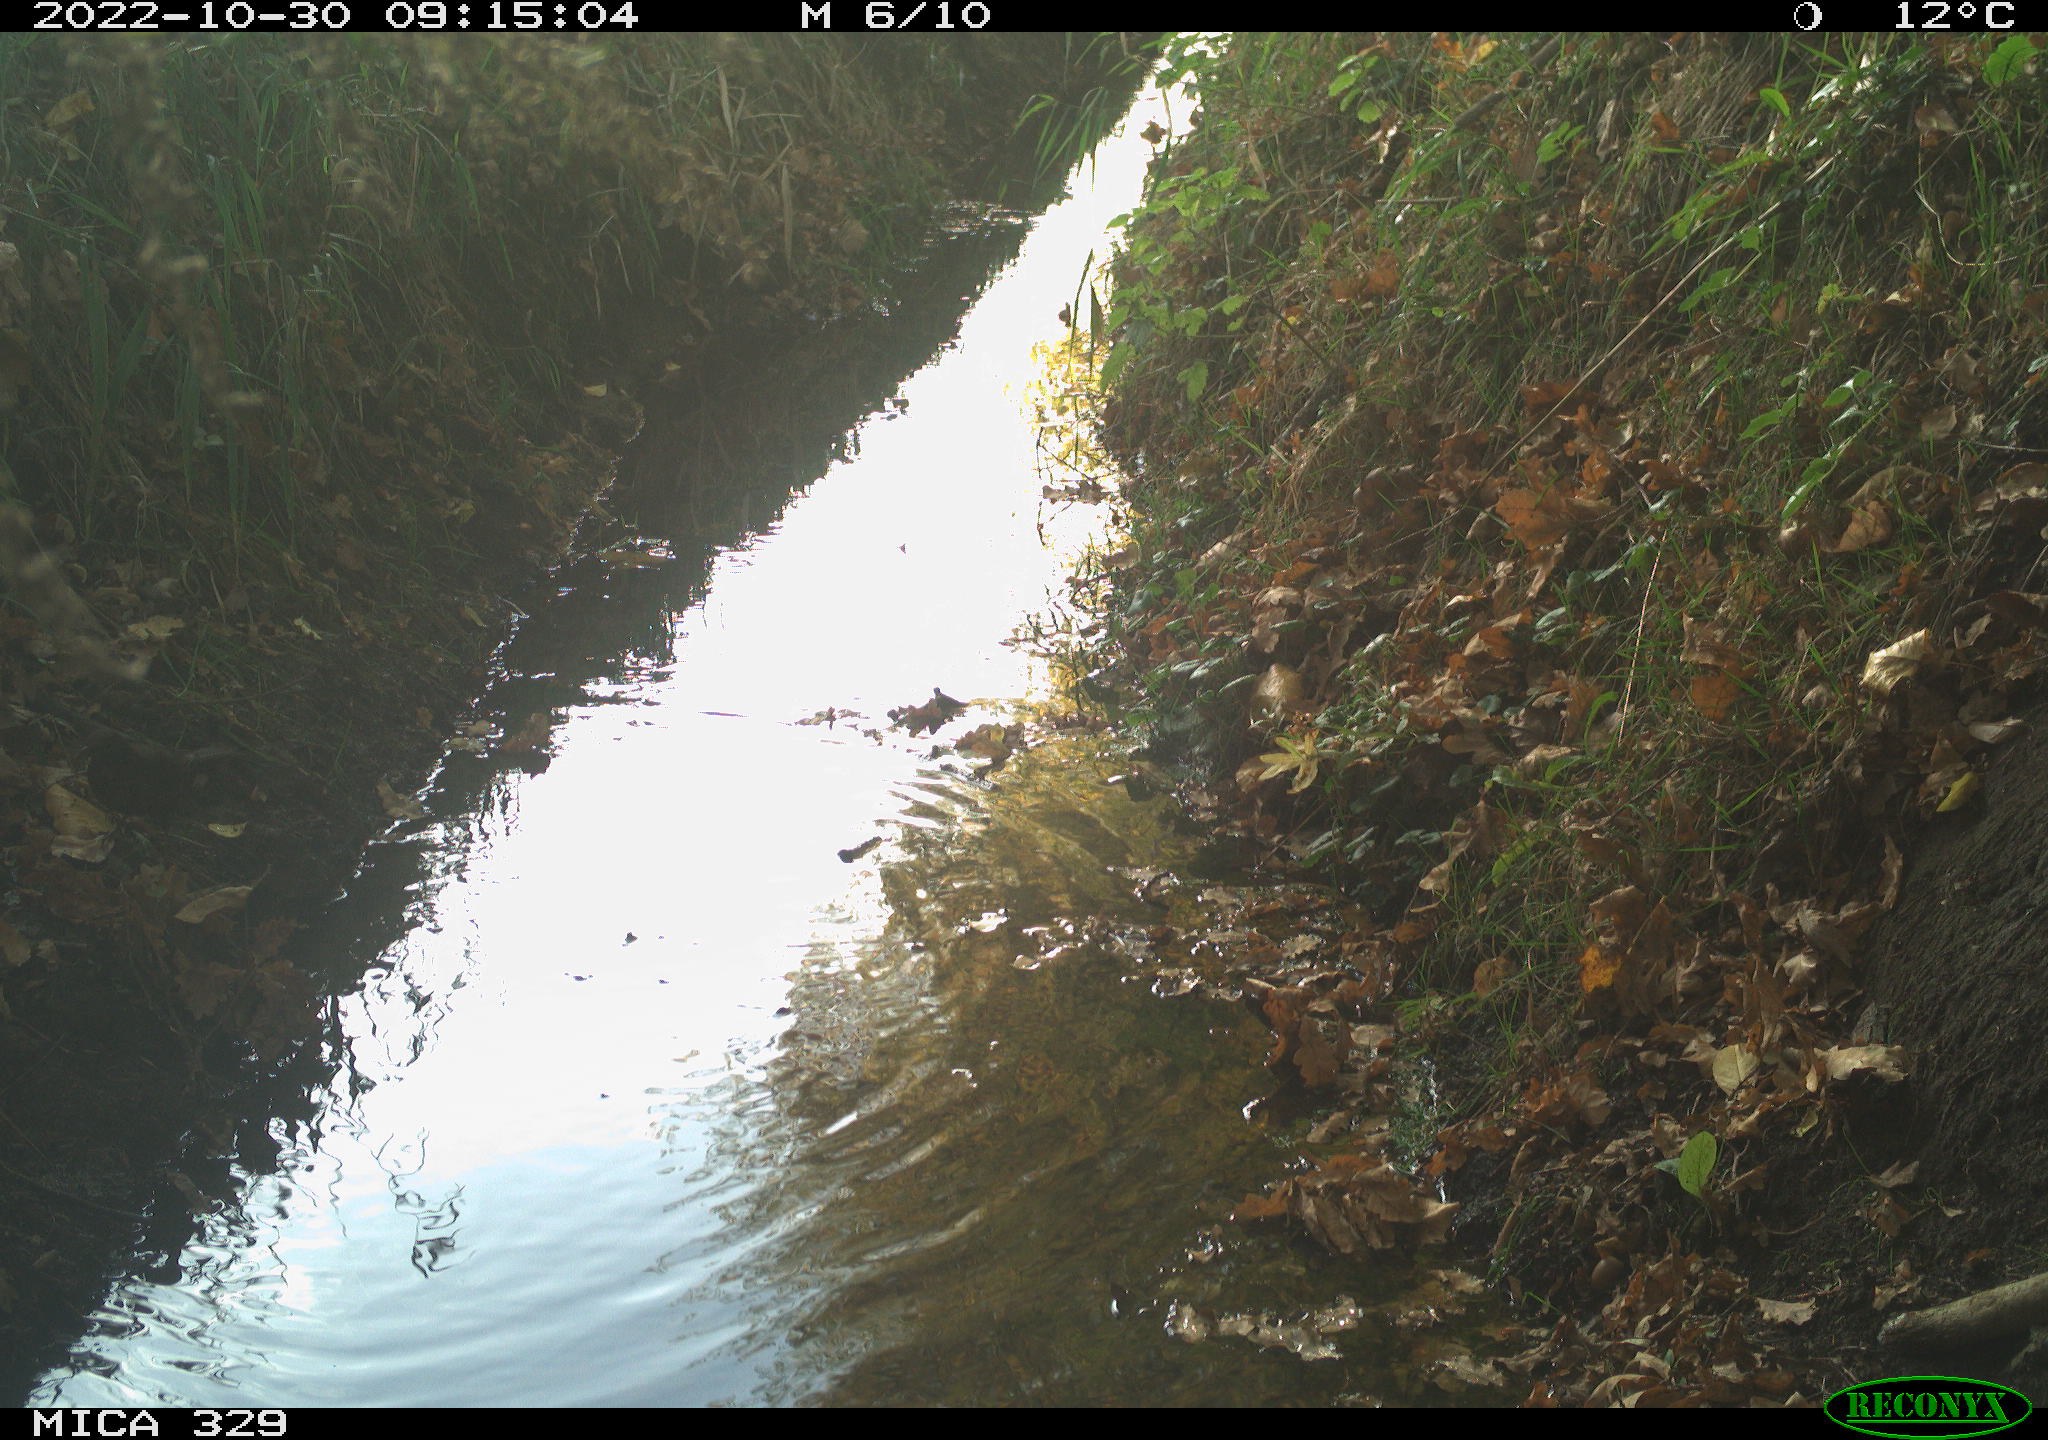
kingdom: Animalia
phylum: Chordata
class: Aves
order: Passeriformes
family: Turdidae
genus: Turdus
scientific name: Turdus merula
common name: Common blackbird
